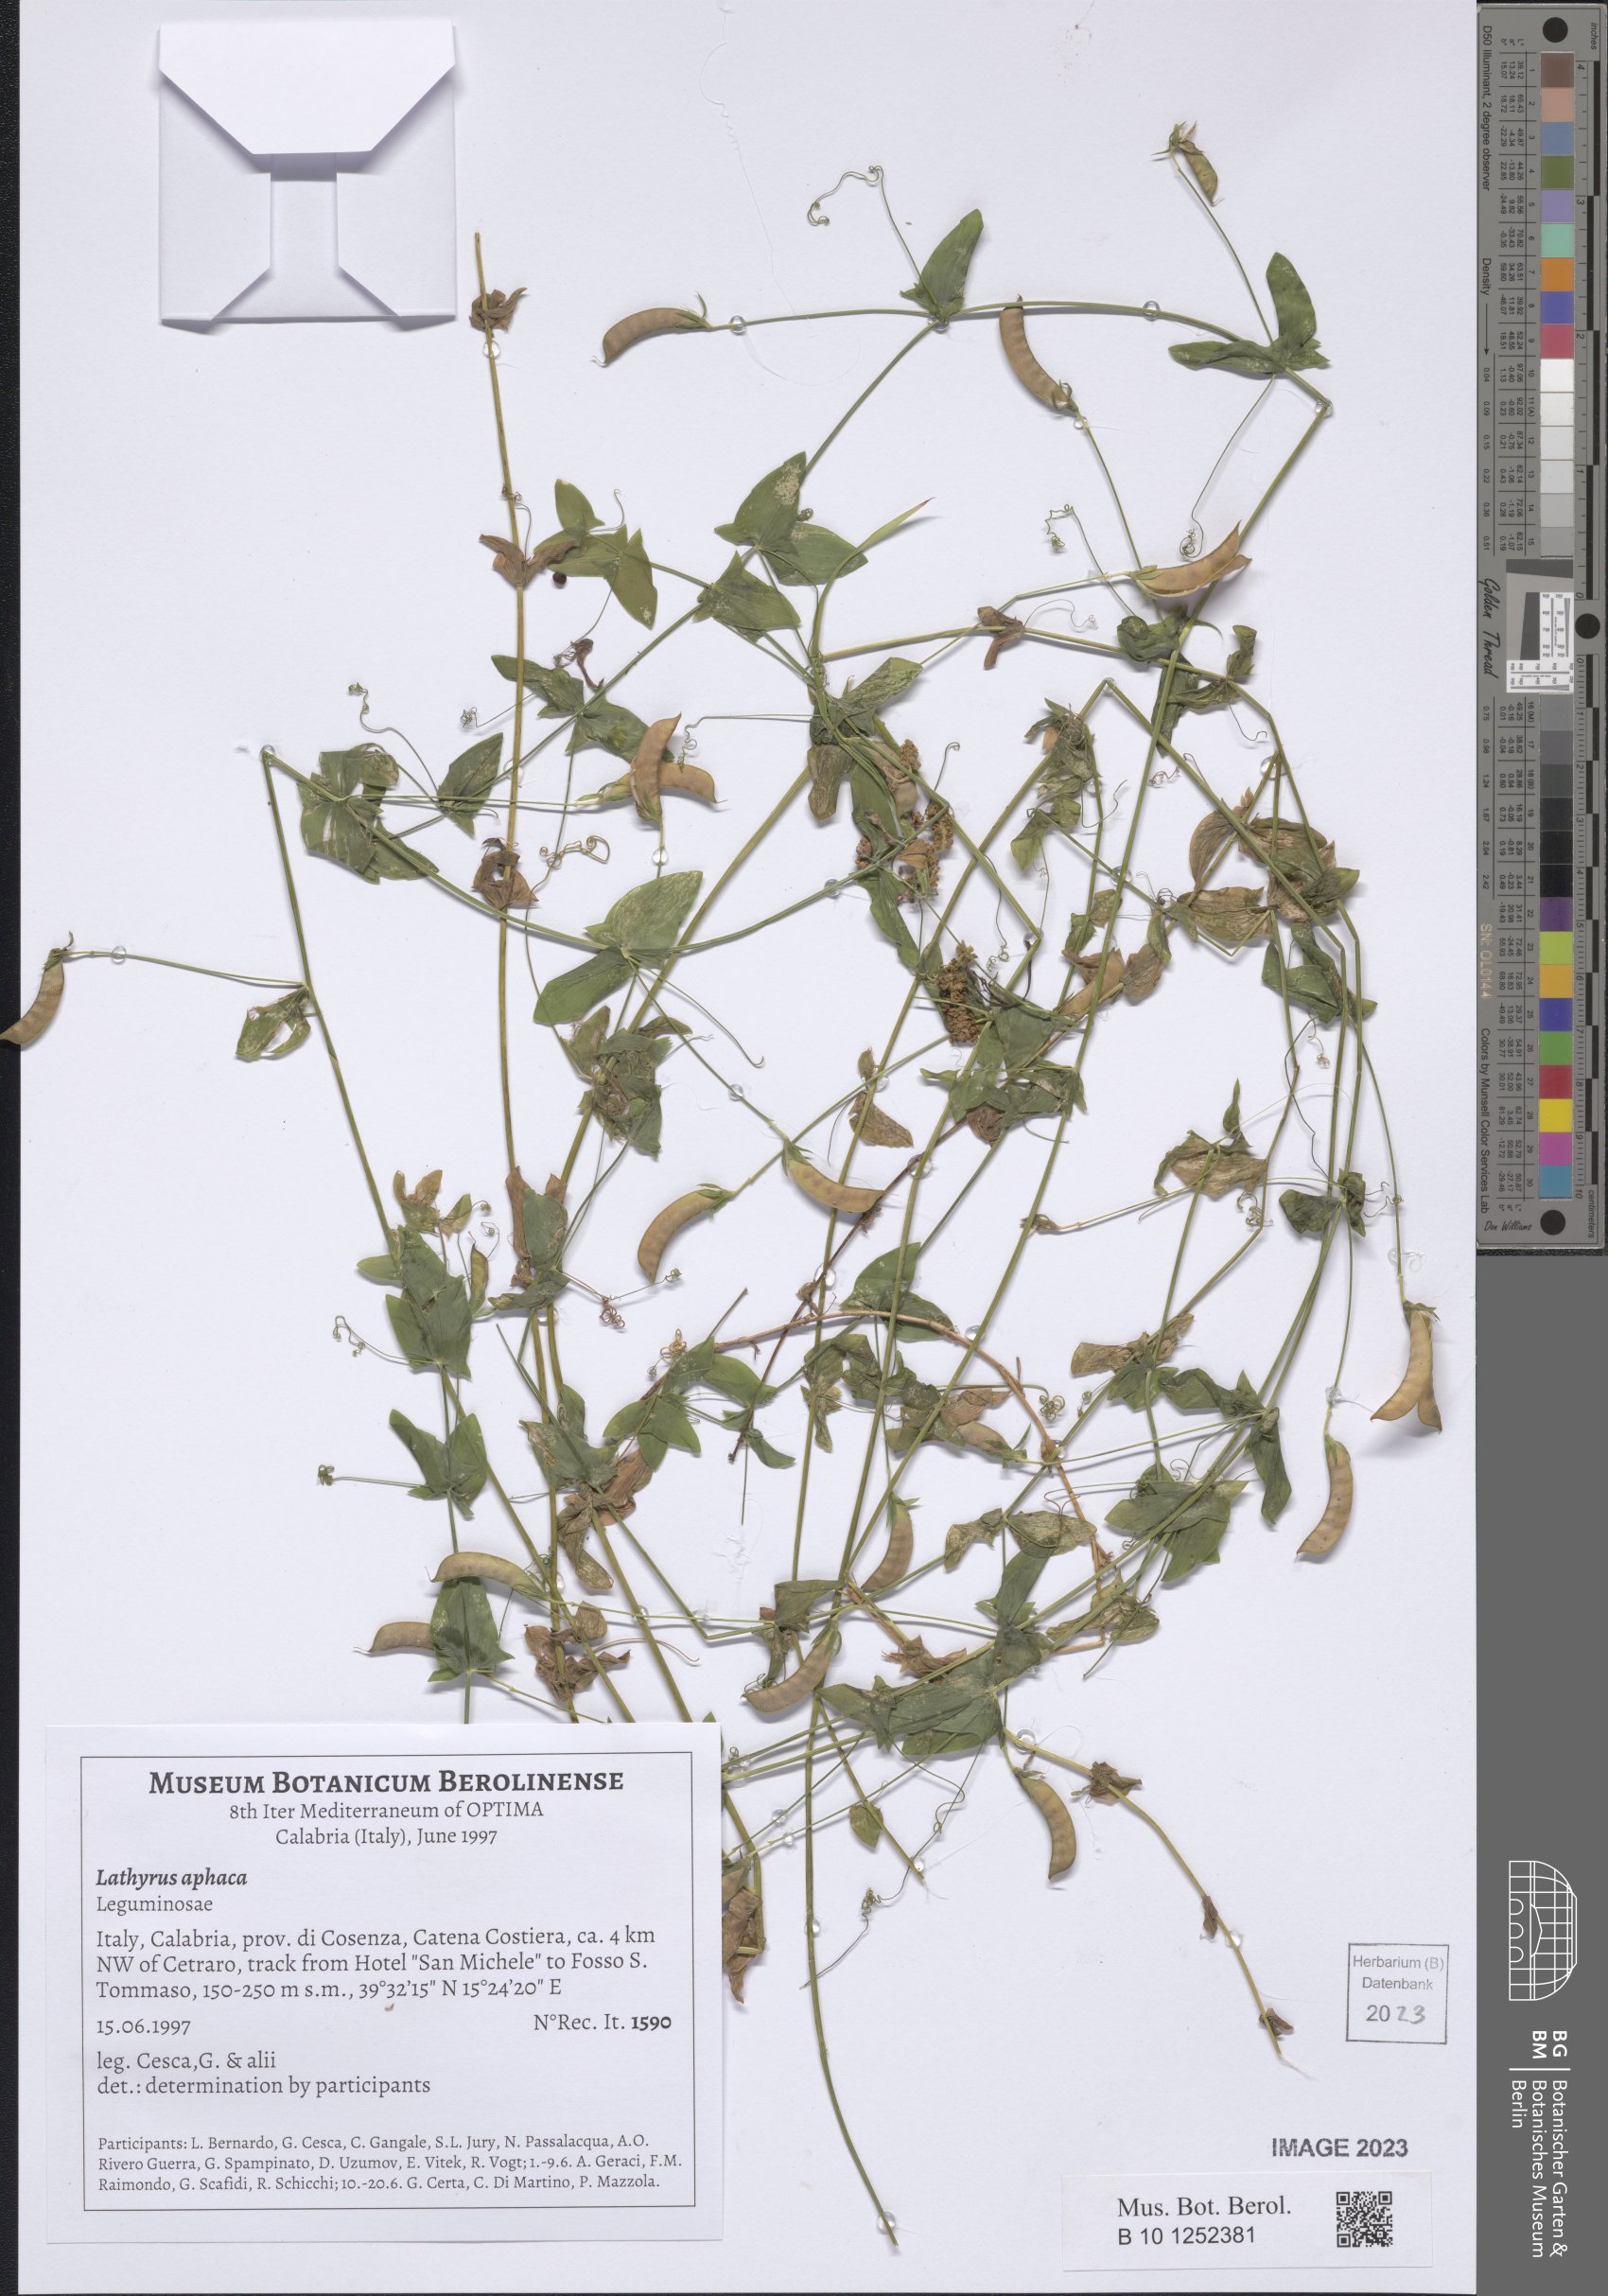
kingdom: Plantae
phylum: Tracheophyta
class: Magnoliopsida
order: Fabales
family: Fabaceae
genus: Lathyrus
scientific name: Lathyrus aphaca
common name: Yellow vetchling
